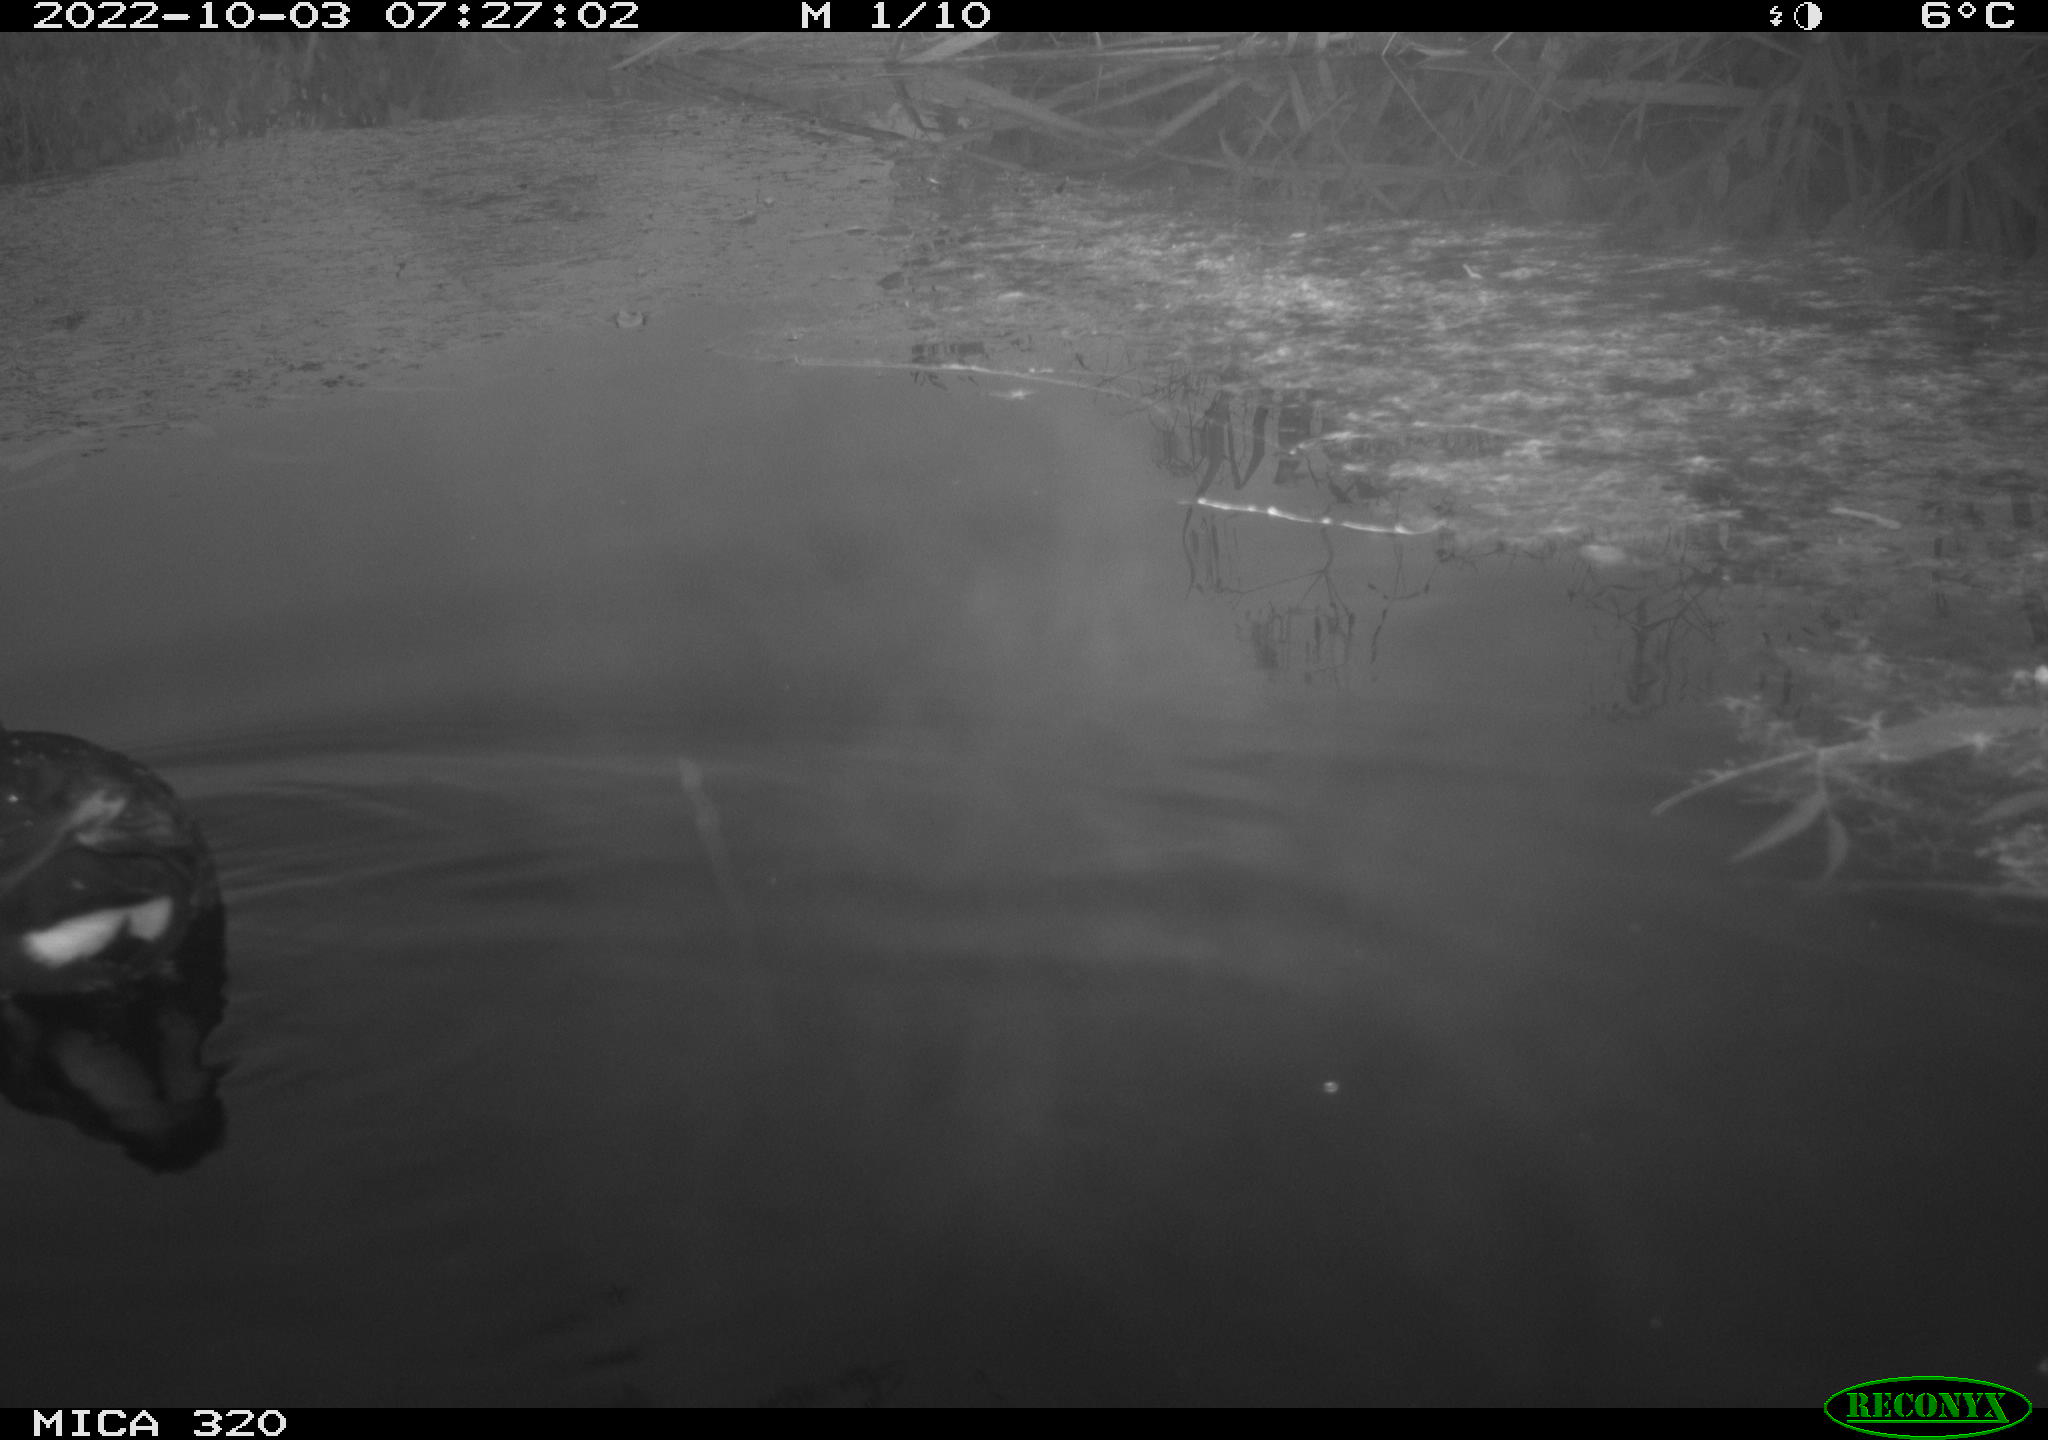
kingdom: Animalia
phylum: Chordata
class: Aves
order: Gruiformes
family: Rallidae
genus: Gallinula
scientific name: Gallinula chloropus
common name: Common moorhen
